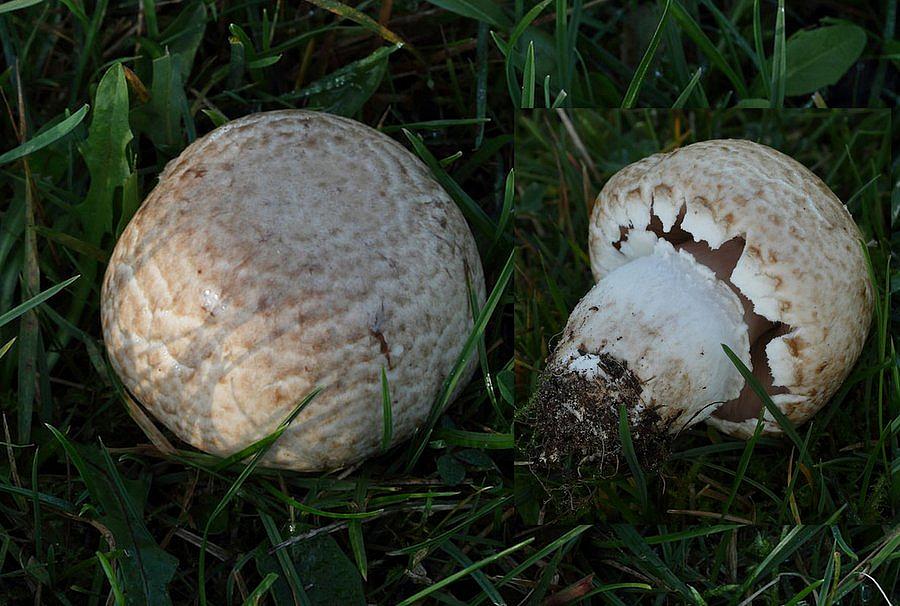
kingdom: Fungi
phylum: Basidiomycota
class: Agaricomycetes
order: Agaricales
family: Agaricaceae
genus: Agaricus
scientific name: Agaricus litoralis
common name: kyst-champignon
